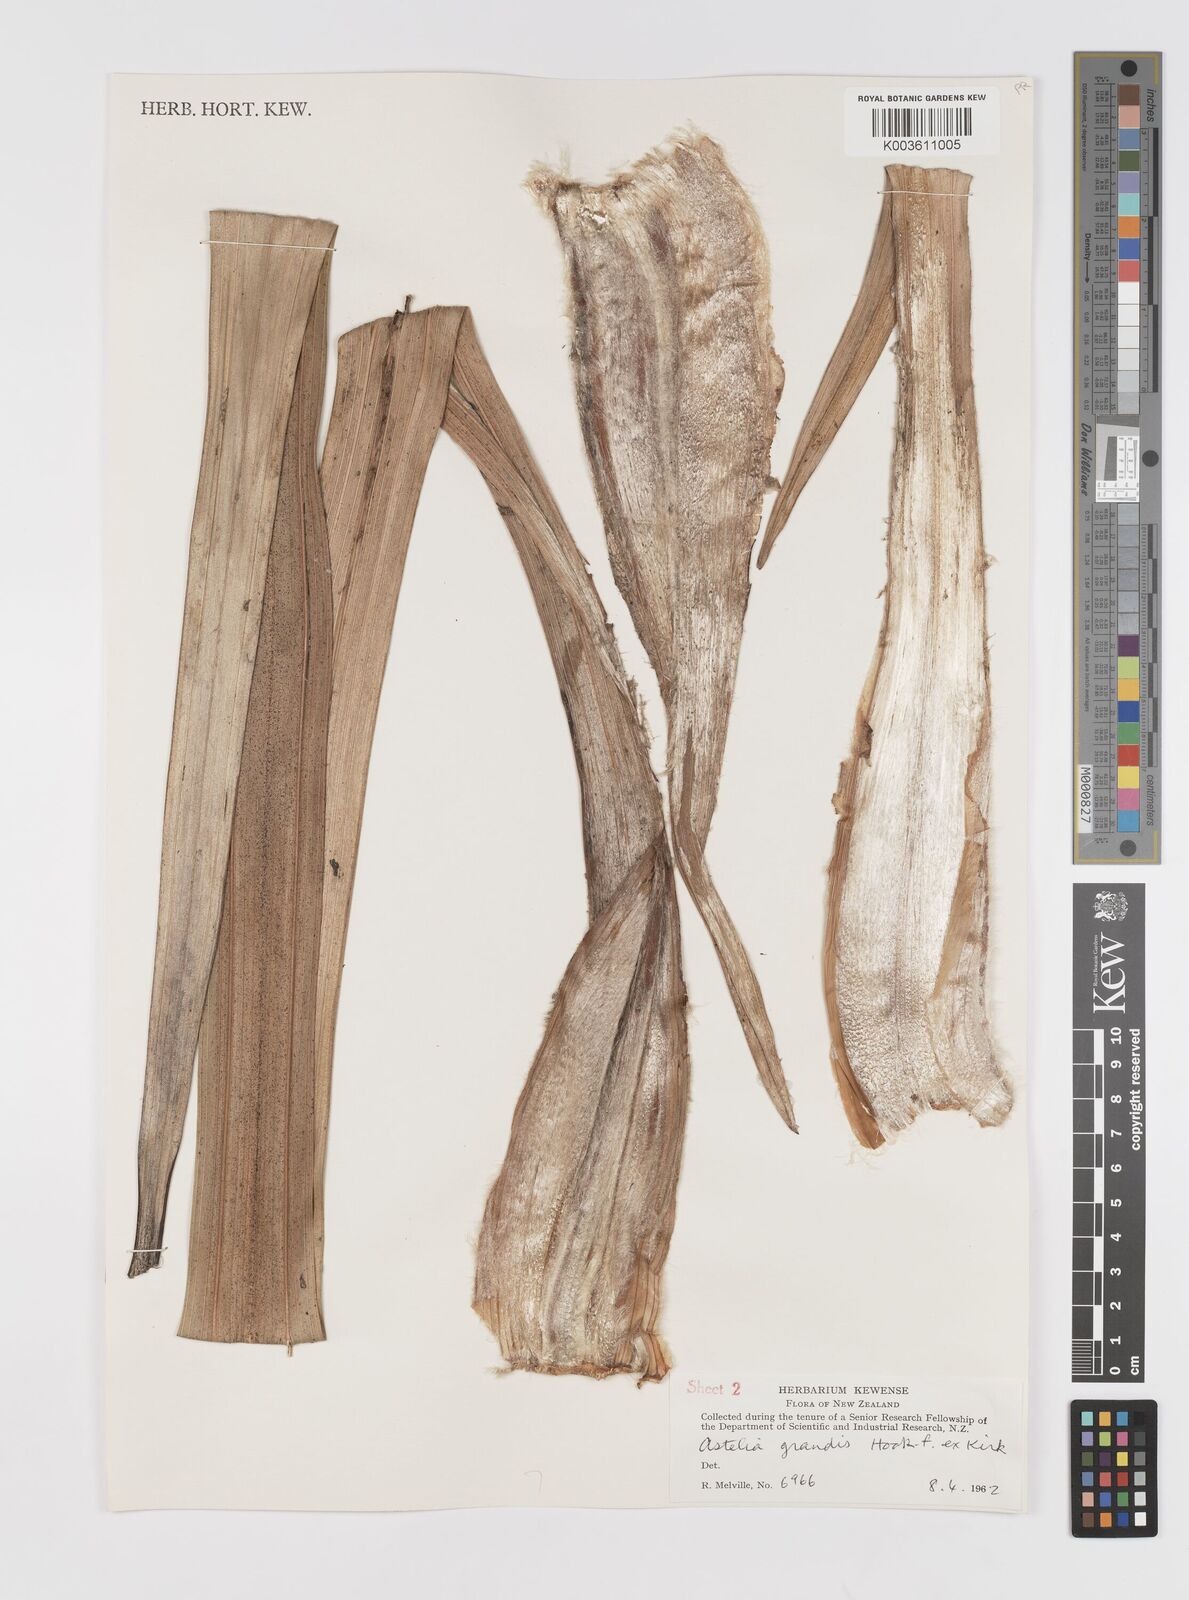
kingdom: Plantae
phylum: Tracheophyta
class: Liliopsida
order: Asparagales
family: Asteliaceae
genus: Astelia
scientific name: Astelia grandis
